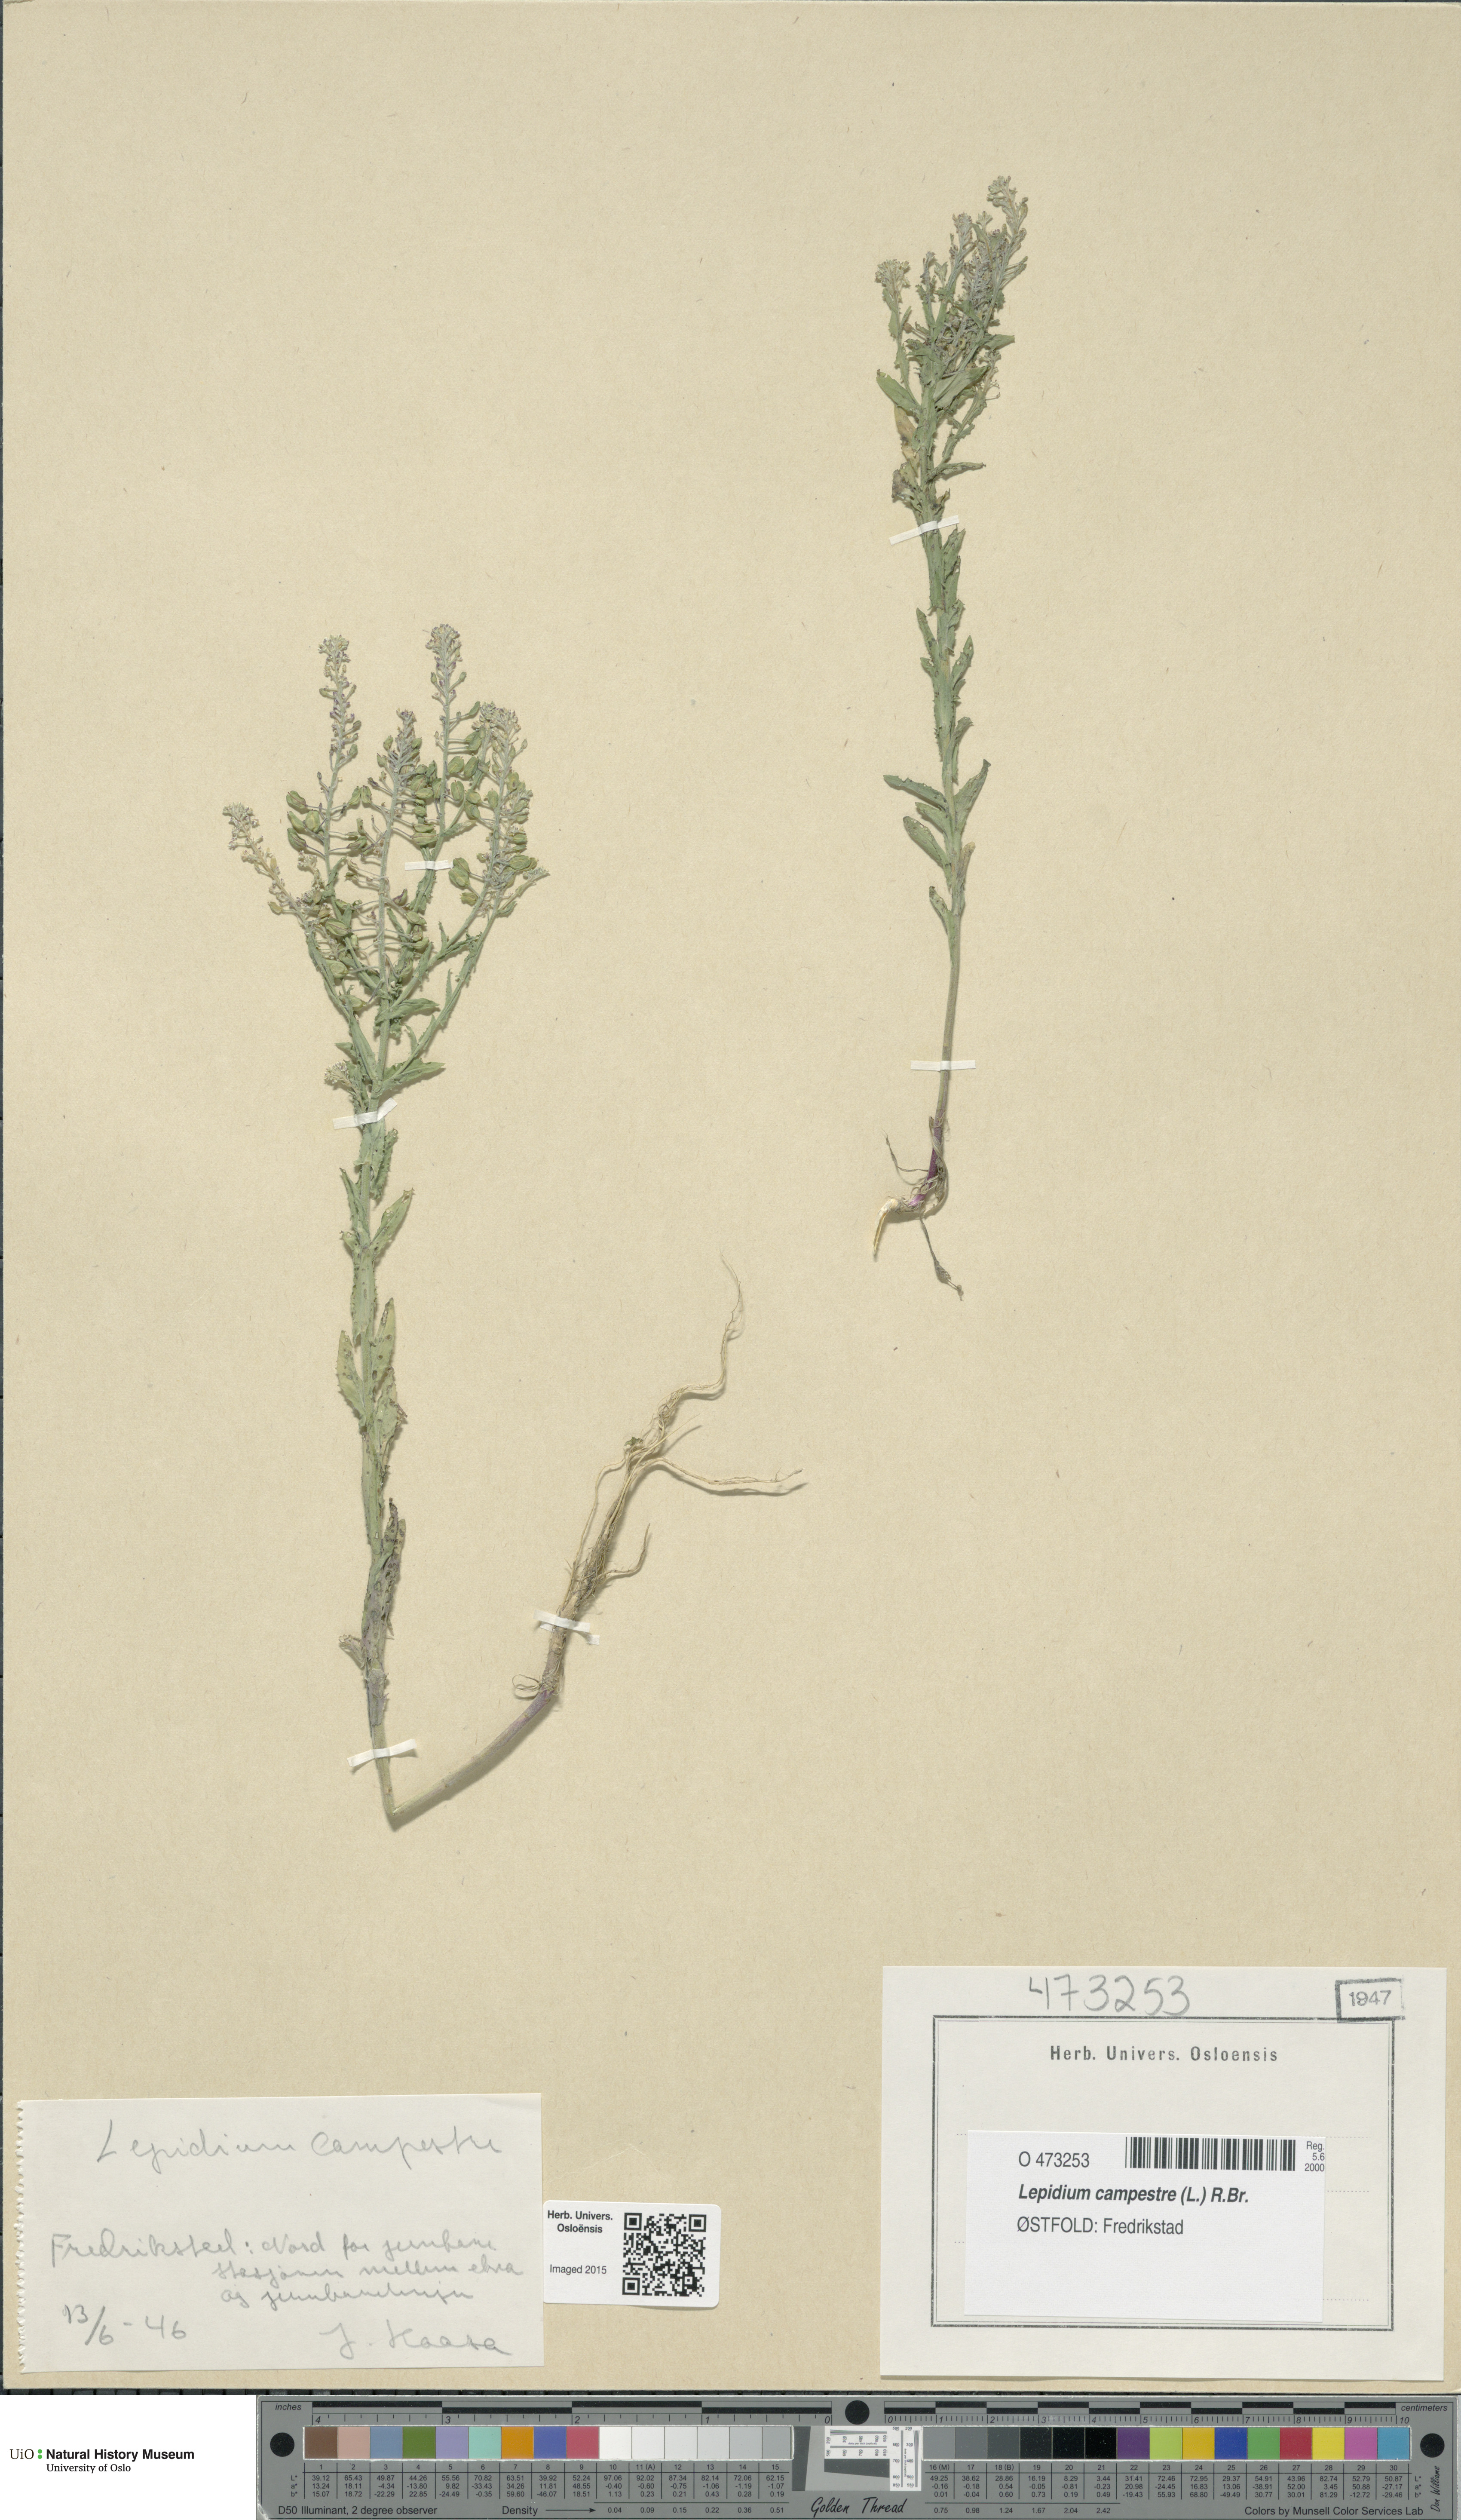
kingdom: Plantae
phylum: Tracheophyta
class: Magnoliopsida
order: Brassicales
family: Brassicaceae
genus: Lepidium
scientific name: Lepidium campestre
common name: Field pepperwort
